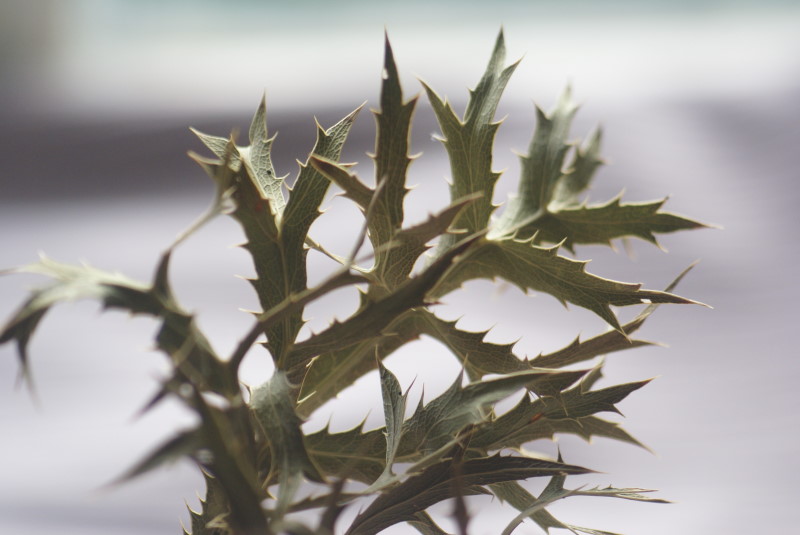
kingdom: Plantae
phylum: Tracheophyta
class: Magnoliopsida
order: Apiales
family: Apiaceae
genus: Eryngium
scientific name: Eryngium campestre
